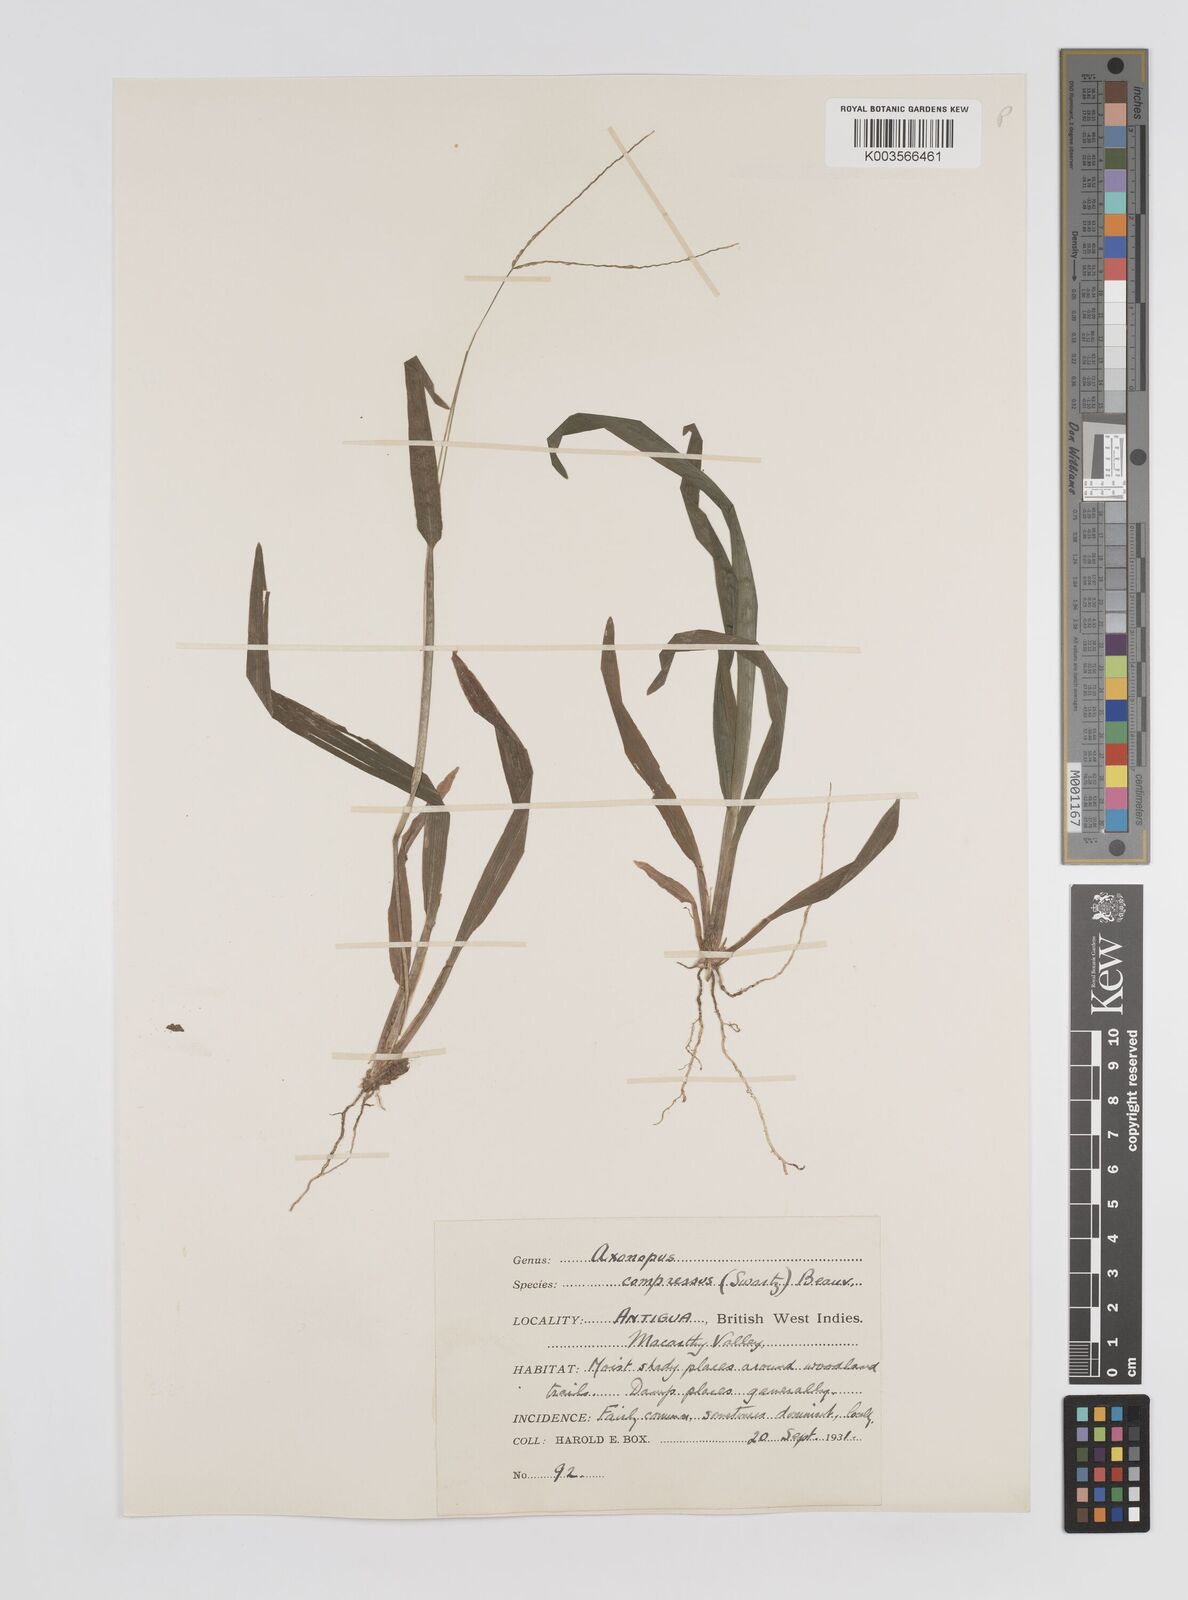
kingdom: Plantae
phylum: Tracheophyta
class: Liliopsida
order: Poales
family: Poaceae
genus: Axonopus
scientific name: Axonopus compressus
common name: American carpet grass
